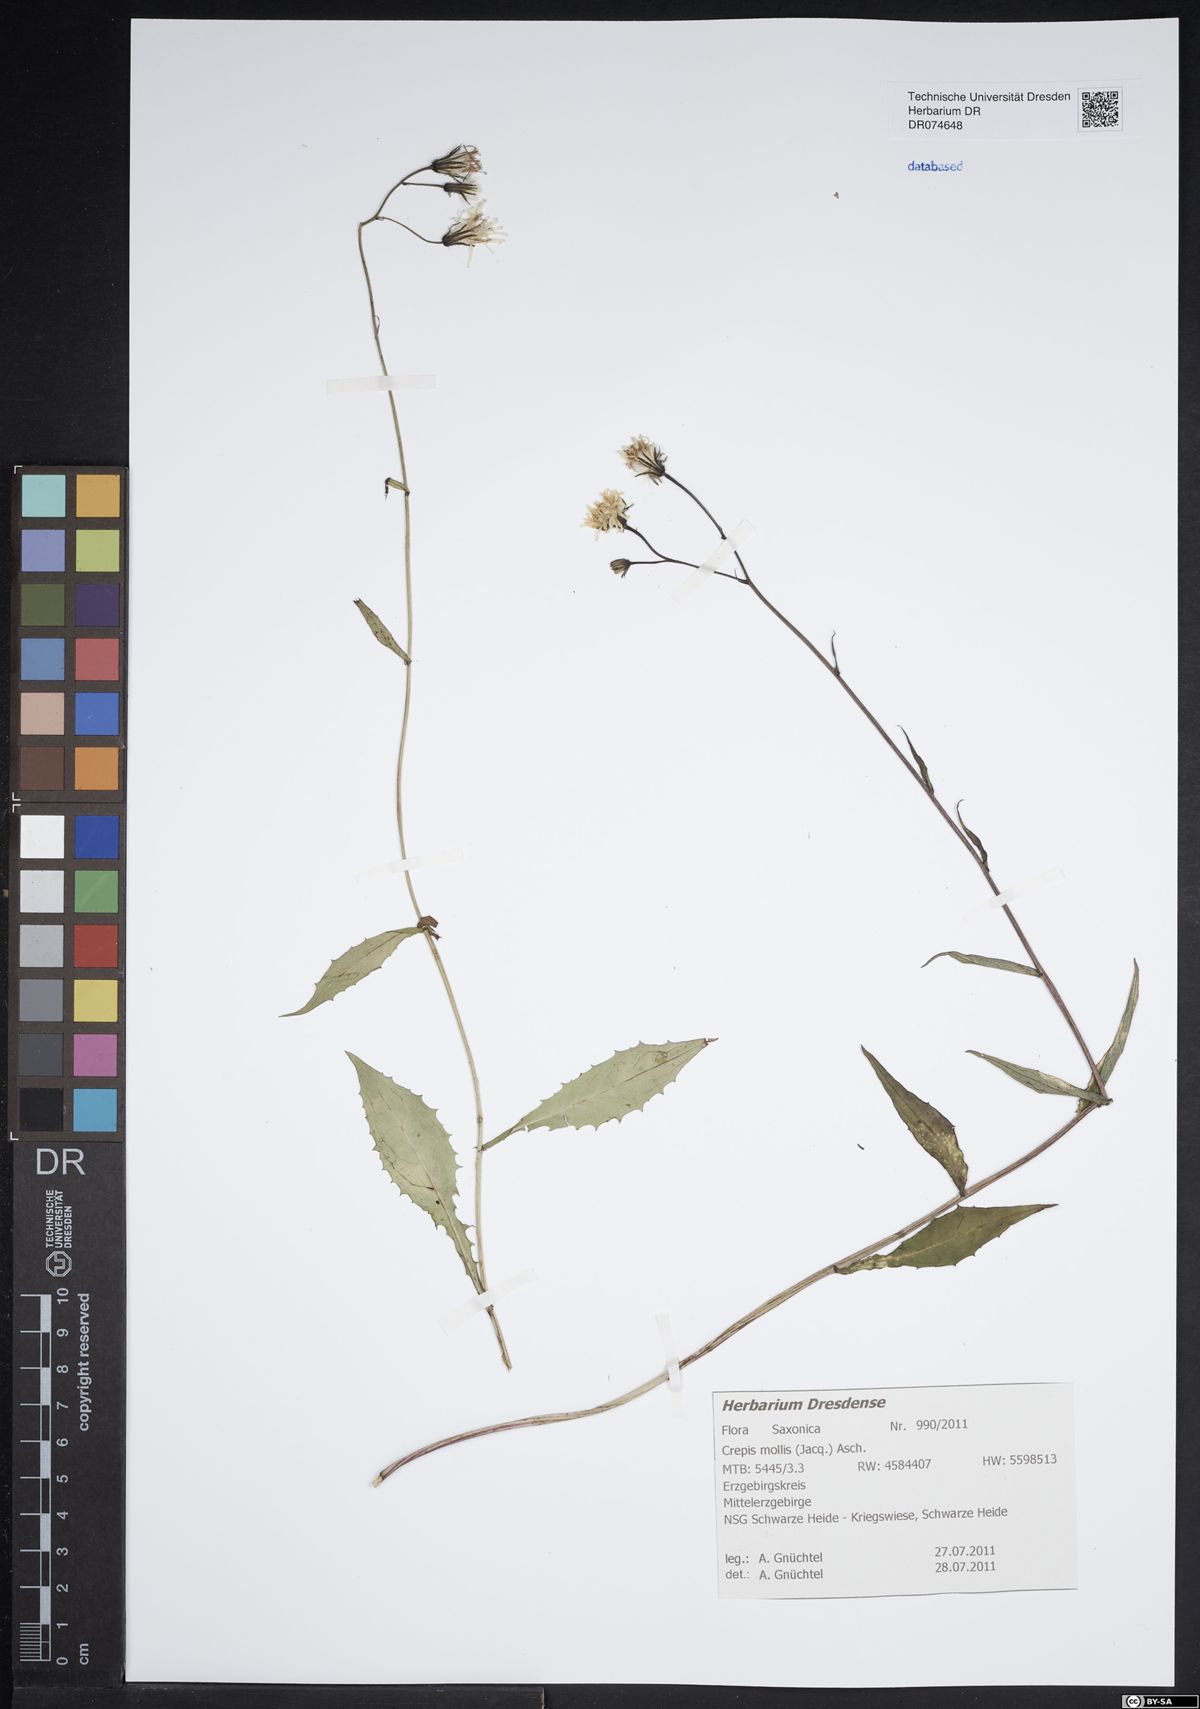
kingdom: Plantae
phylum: Tracheophyta
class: Magnoliopsida
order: Asterales
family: Asteraceae
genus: Crepis
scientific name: Crepis biennis
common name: Rough hawk's-beard
